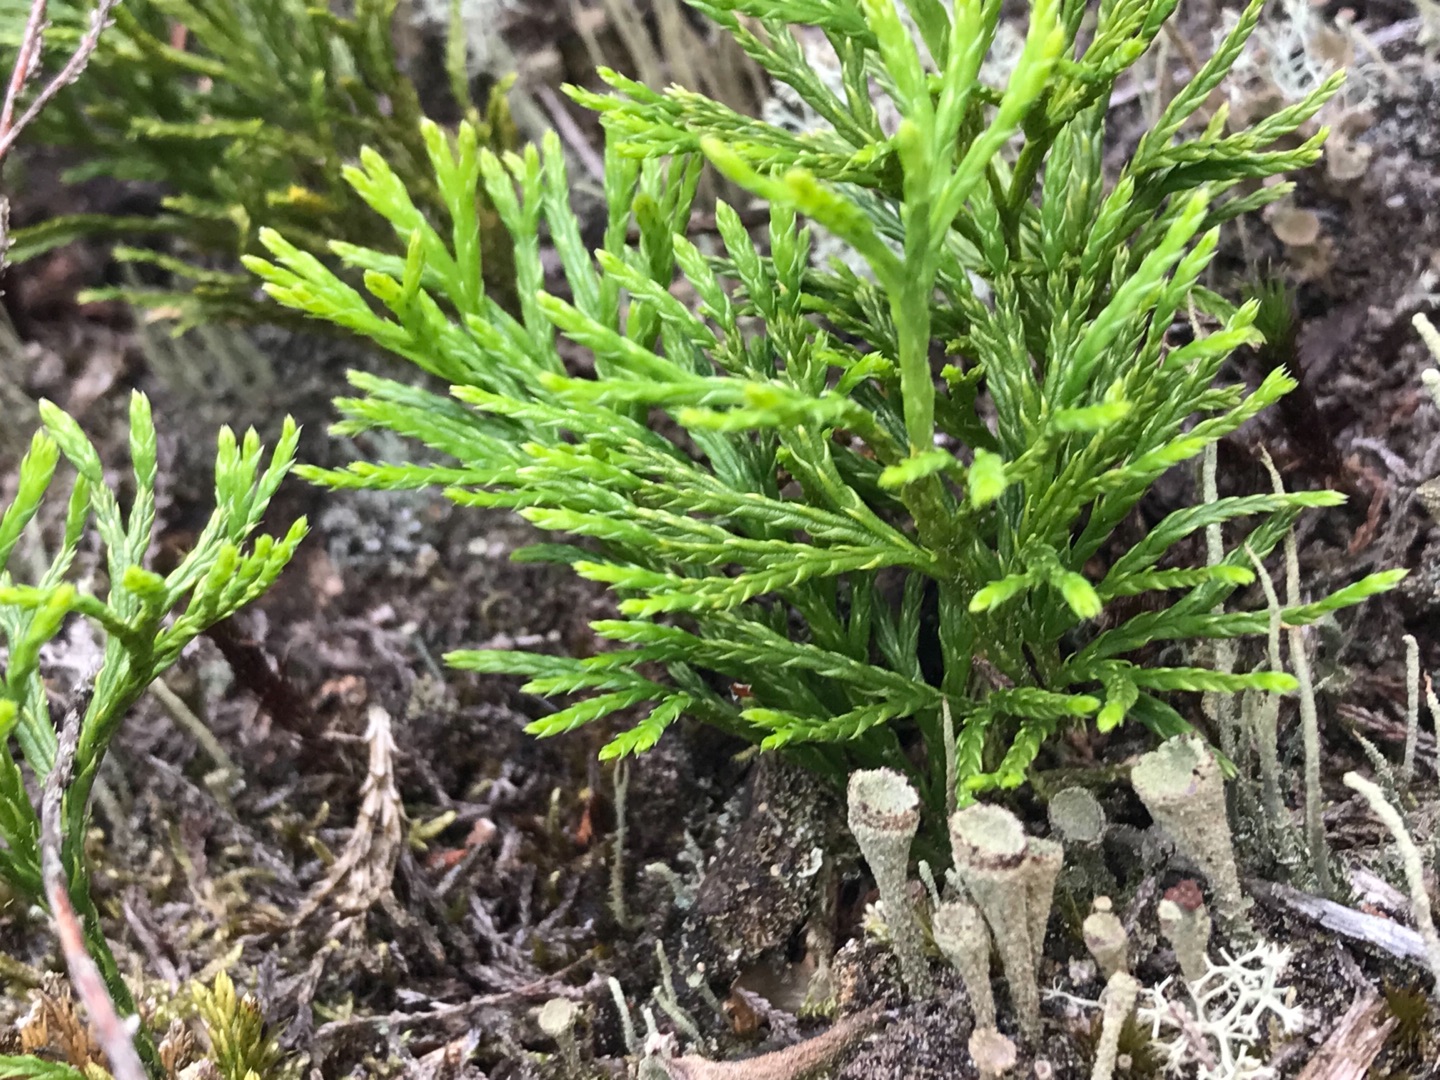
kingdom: Plantae
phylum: Tracheophyta
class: Lycopodiopsida
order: Lycopodiales
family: Lycopodiaceae
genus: Diphasiastrum
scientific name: Diphasiastrum tristachyum
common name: Cypres-ulvefod
